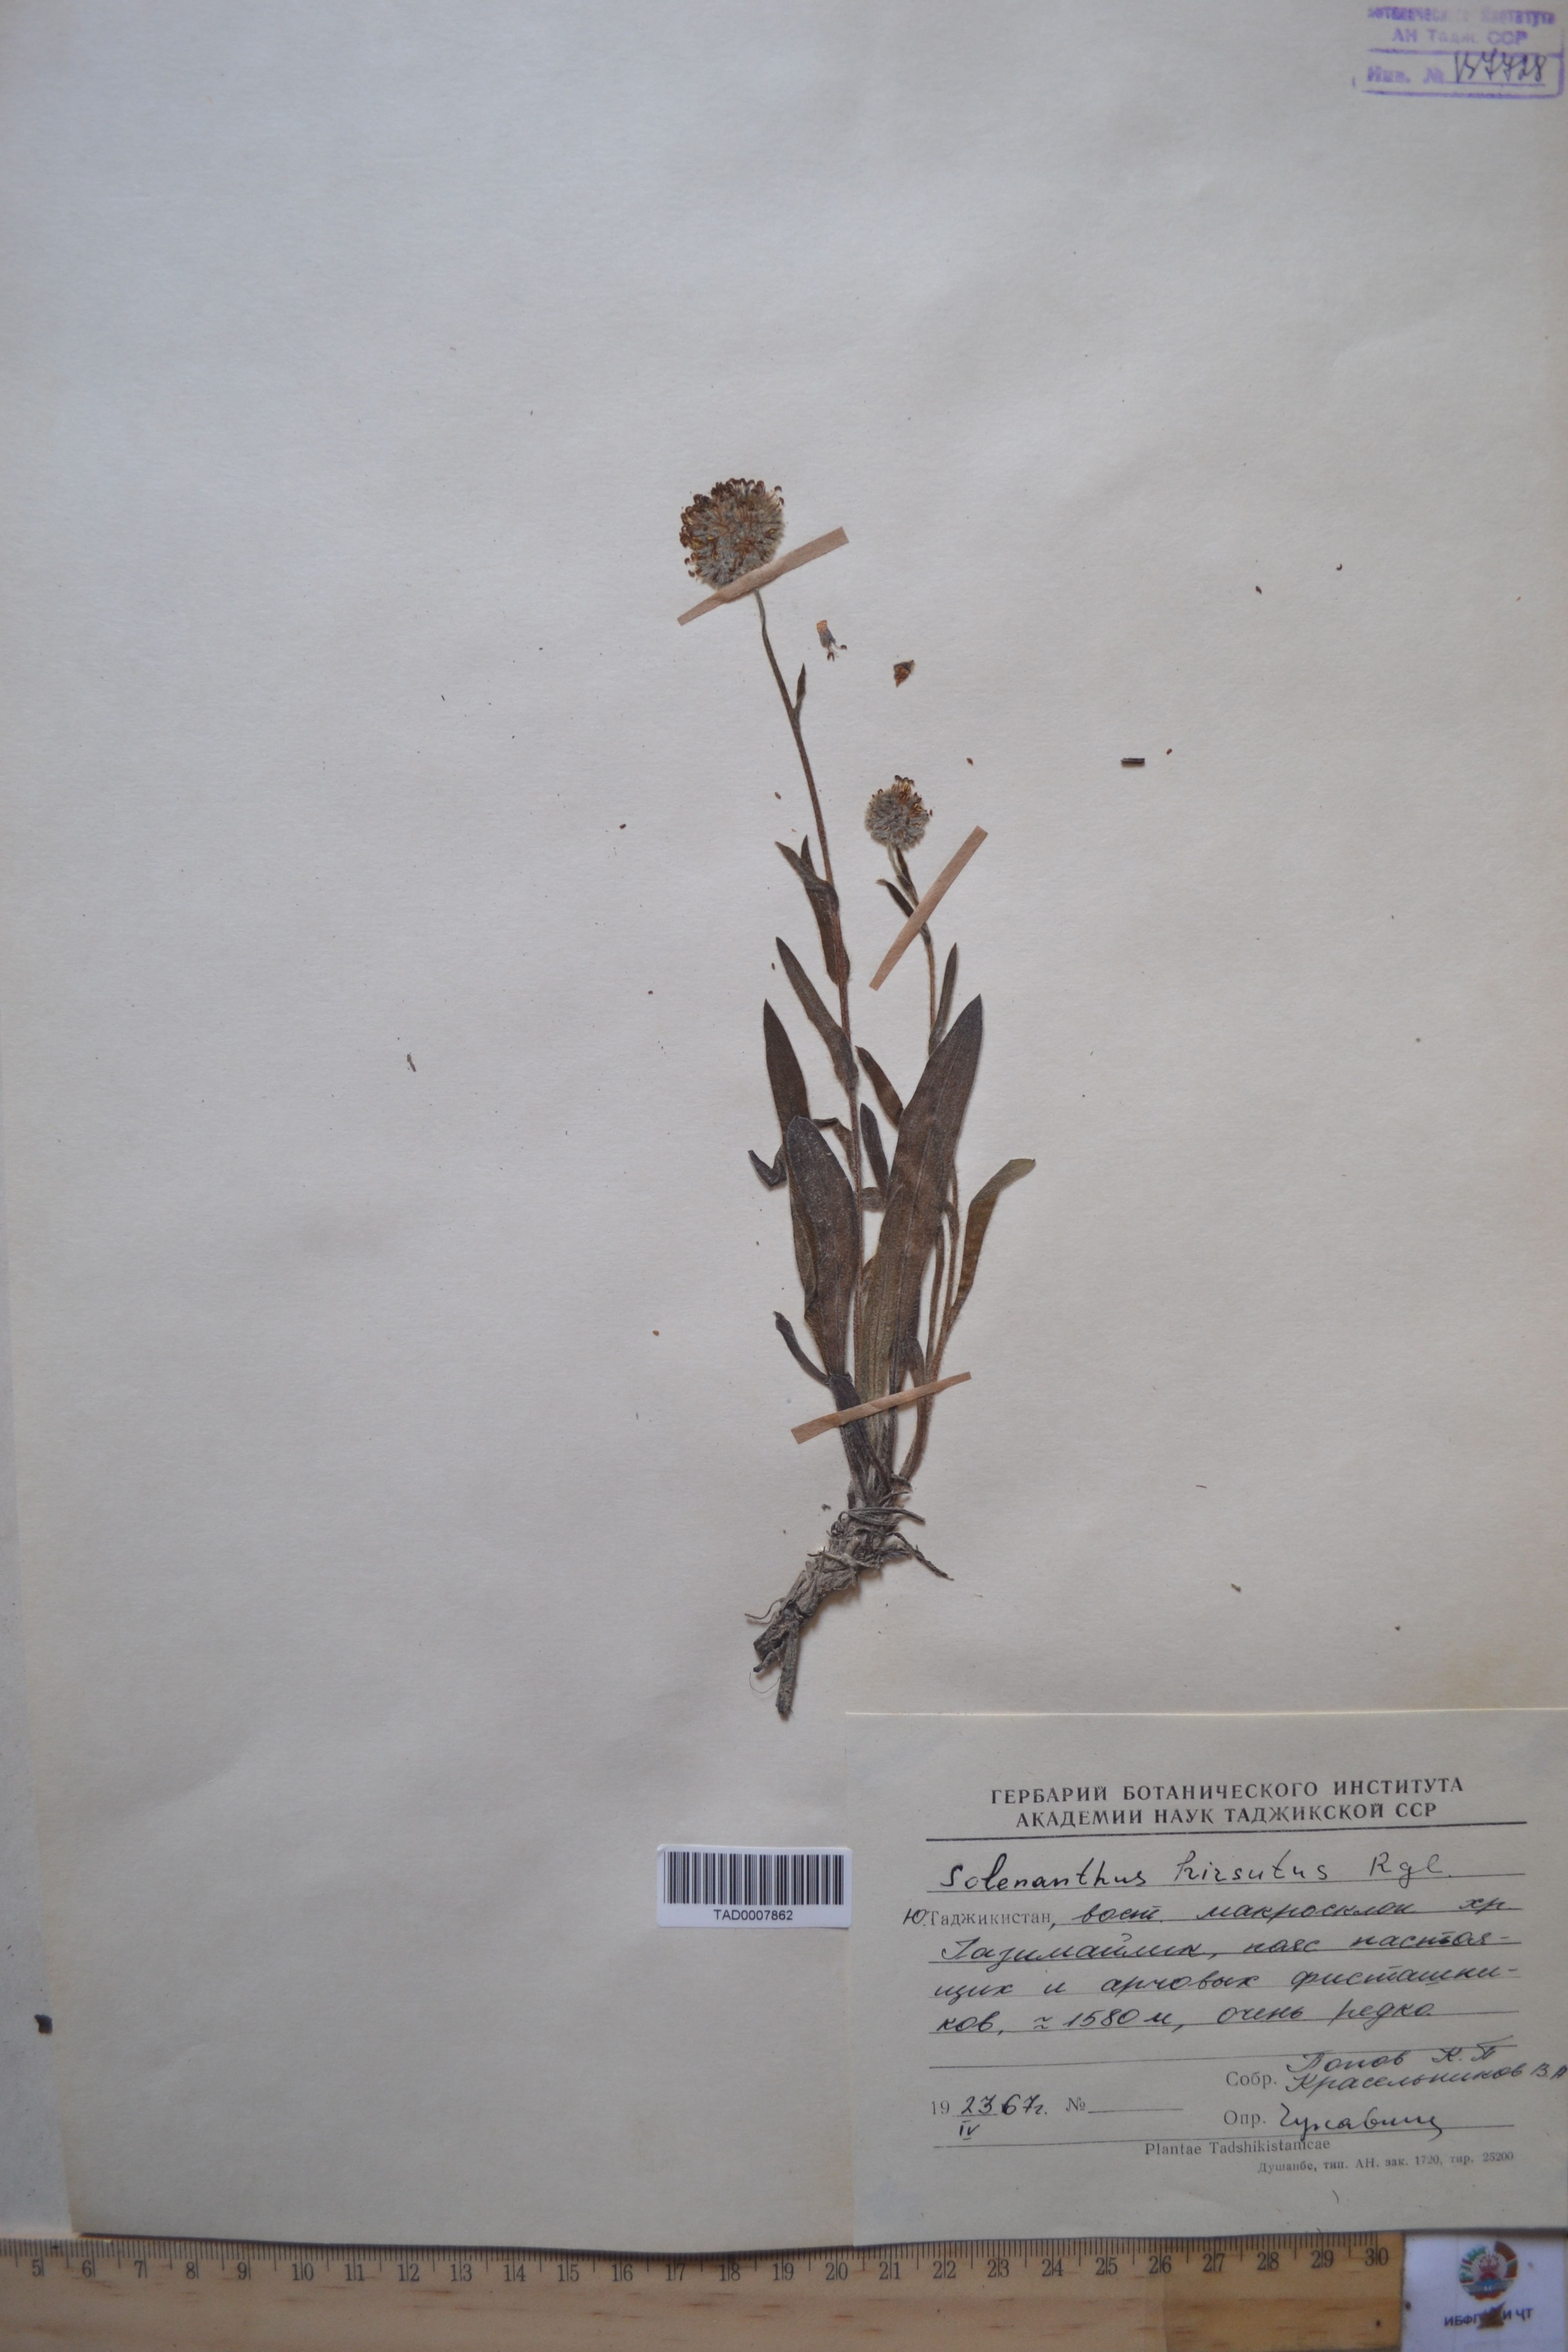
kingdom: Plantae
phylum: Tracheophyta
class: Magnoliopsida
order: Boraginales
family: Boraginaceae
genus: Solenanthus
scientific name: Solenanthus hirsutus
